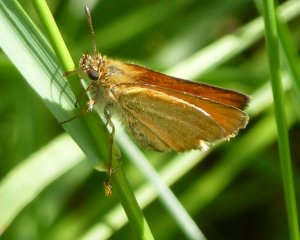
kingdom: Animalia
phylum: Arthropoda
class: Insecta
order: Lepidoptera
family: Hesperiidae
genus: Thymelicus
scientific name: Thymelicus lineola
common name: European Skipper
